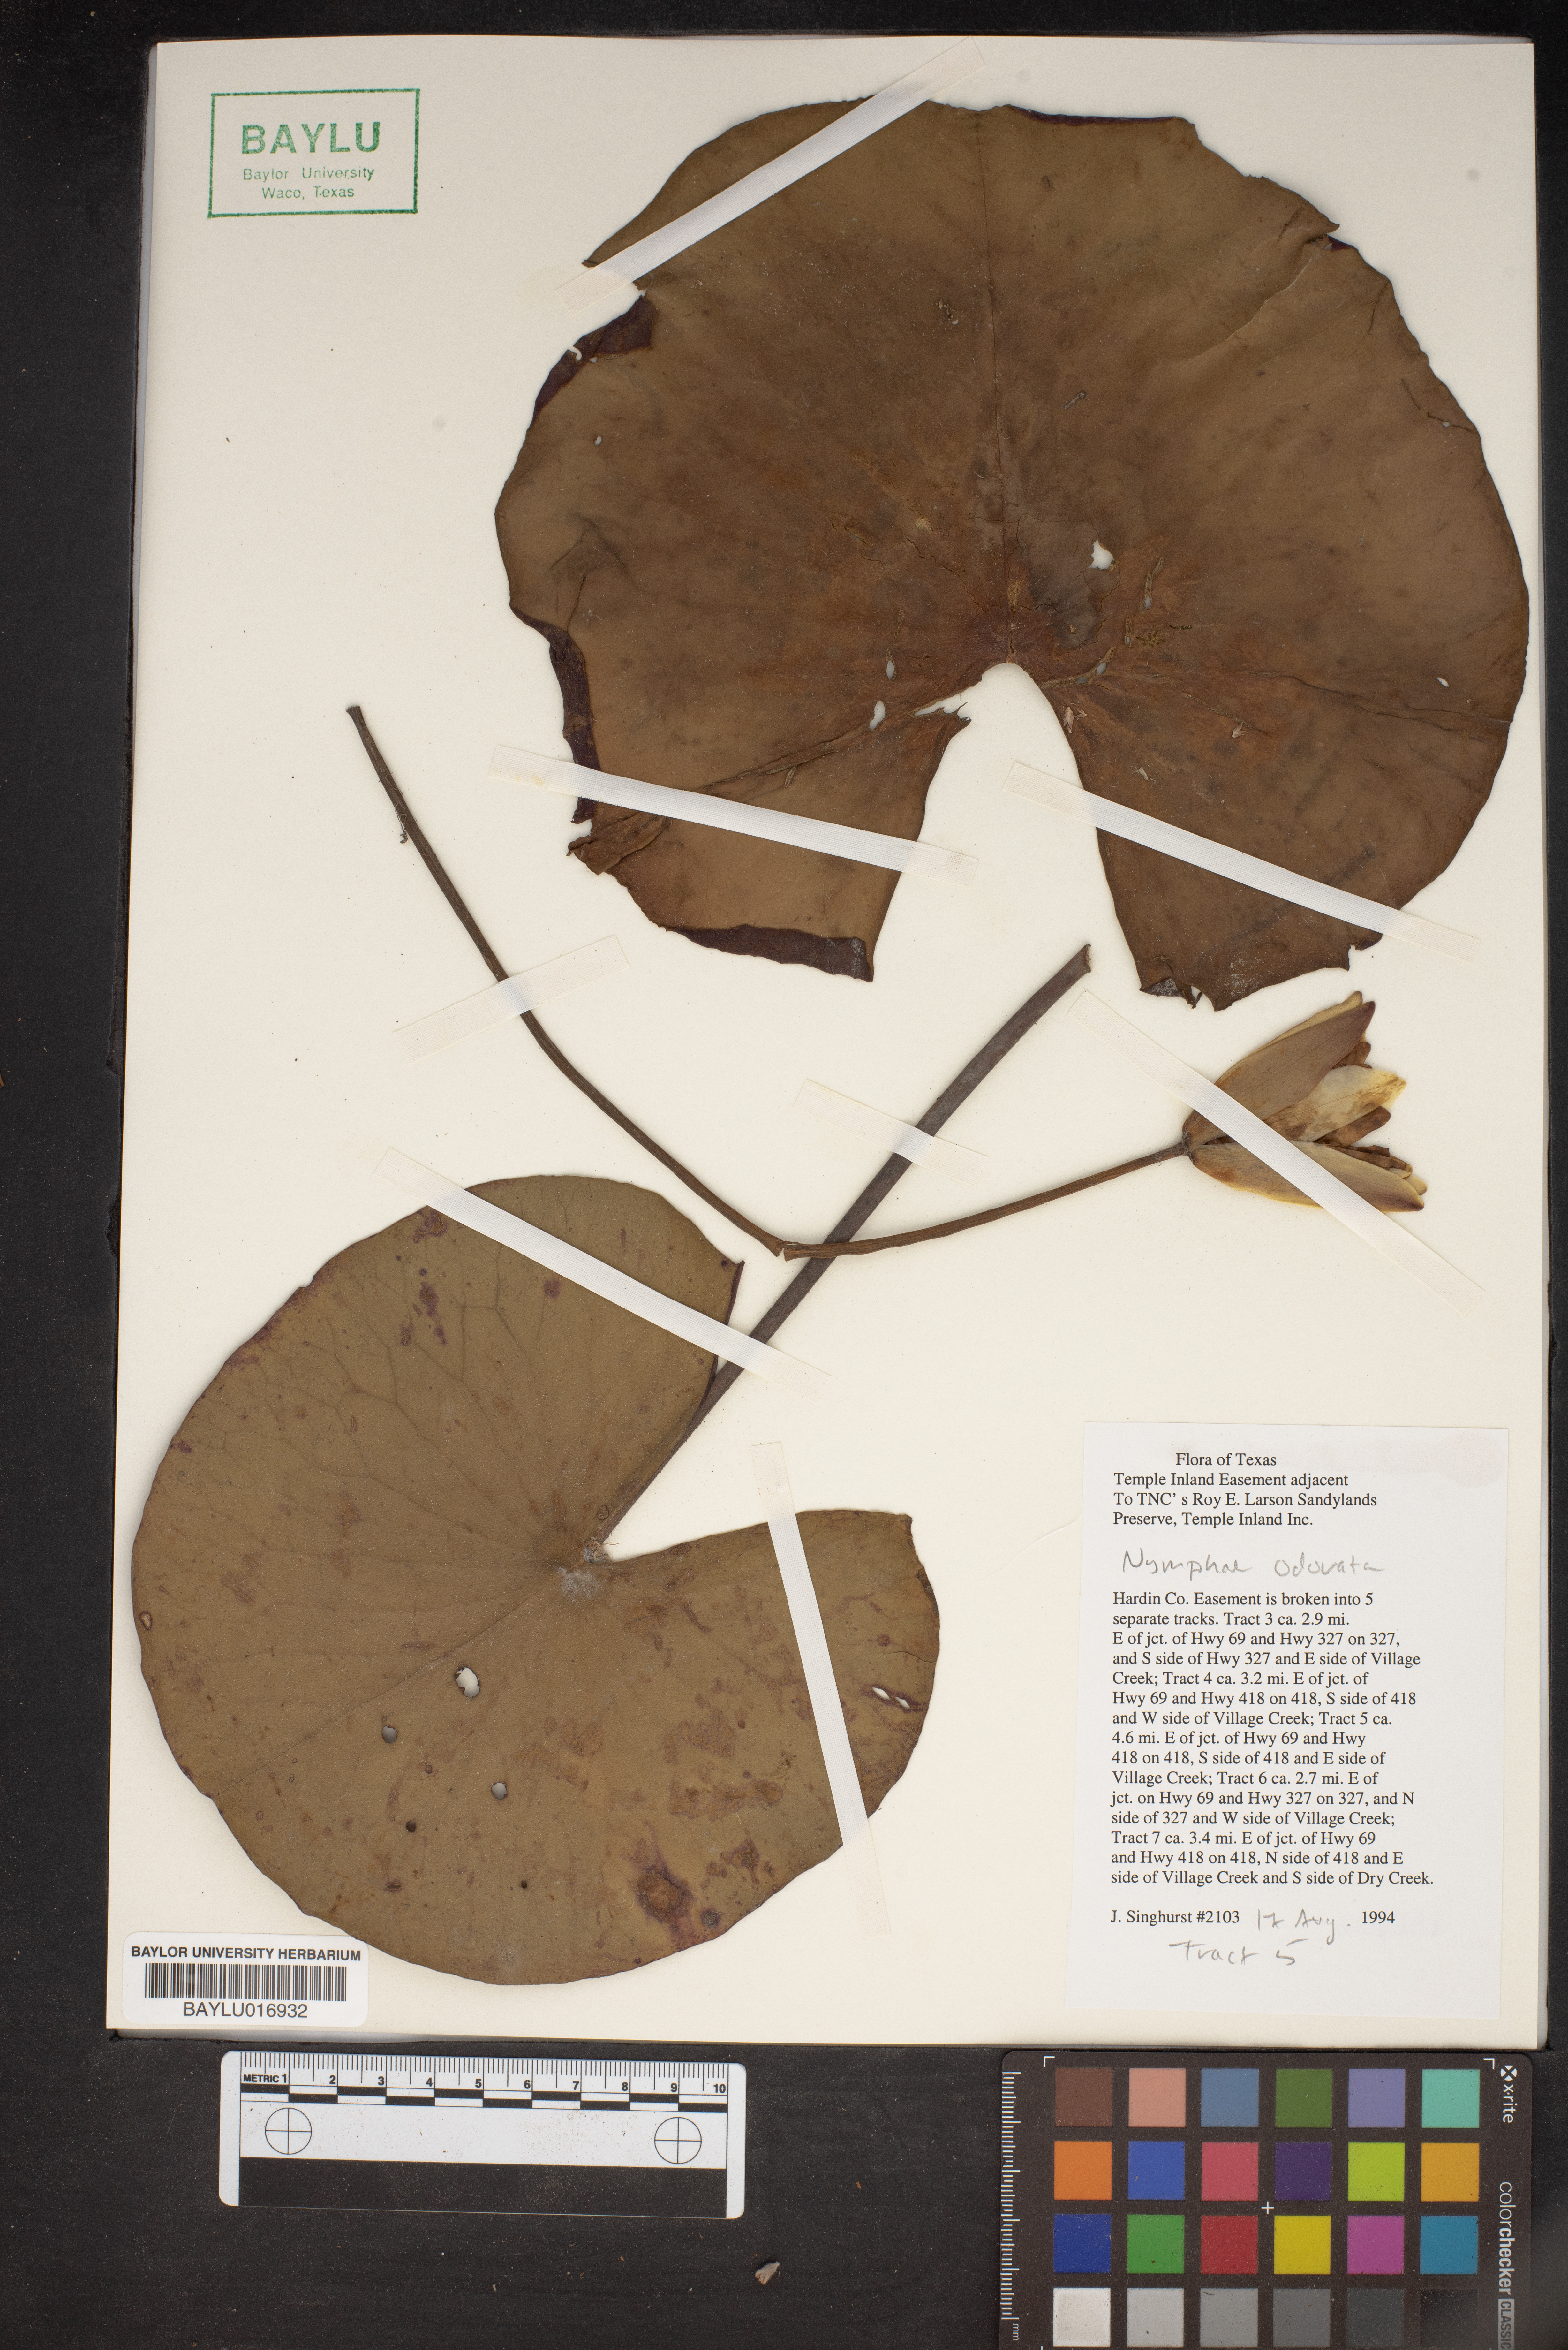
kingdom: Plantae
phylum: Tracheophyta
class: Magnoliopsida
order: Nymphaeales
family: Nymphaeaceae
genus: Nymphaea
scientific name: Nymphaea odorata
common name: Fragrant water-lily
